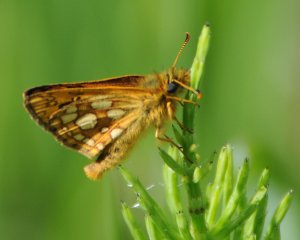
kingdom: Animalia
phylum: Arthropoda
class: Insecta
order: Lepidoptera
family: Hesperiidae
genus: Carterocephalus
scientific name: Carterocephalus palaemon
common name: Chequered Skipper
